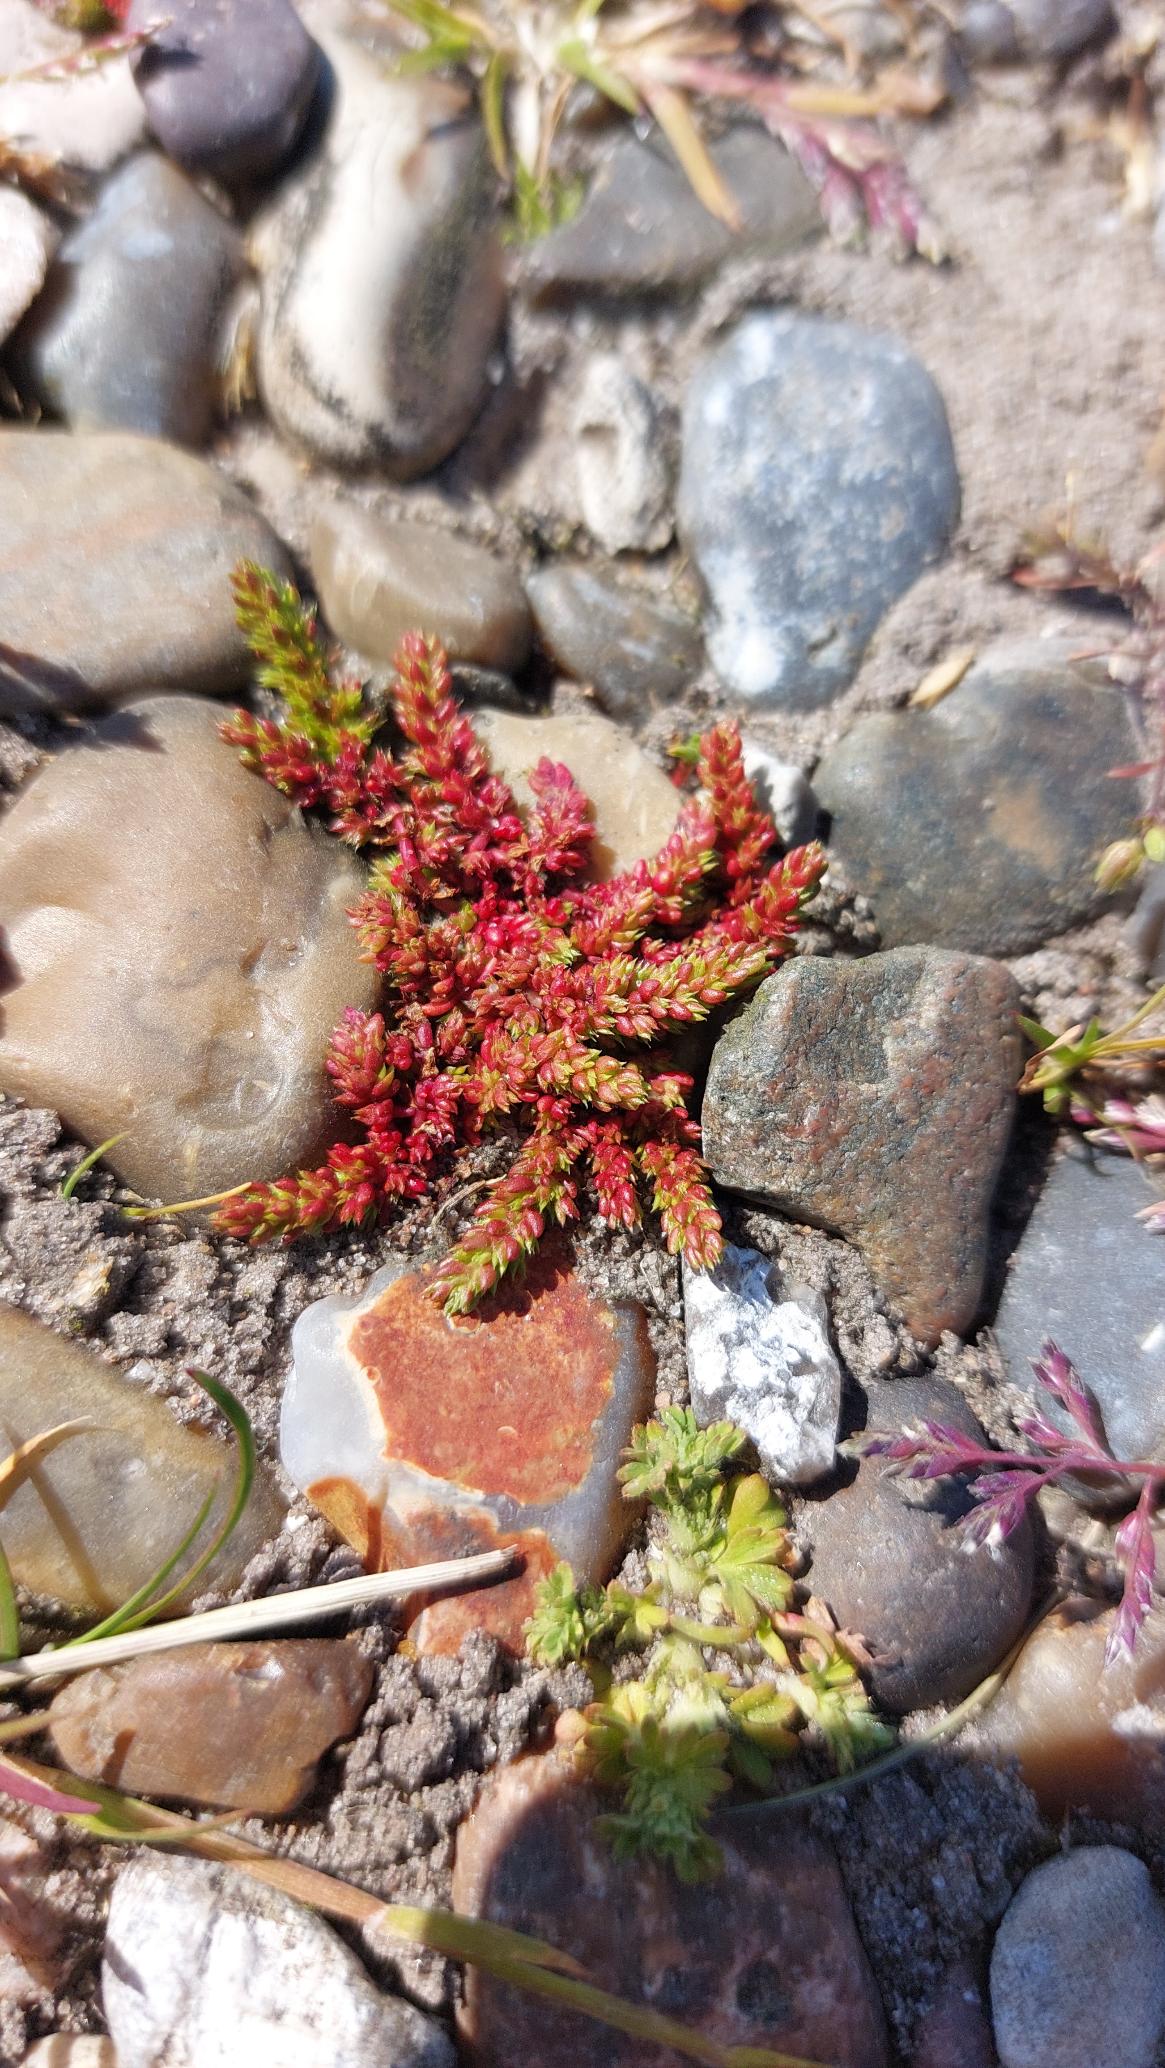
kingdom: Plantae
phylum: Tracheophyta
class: Magnoliopsida
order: Saxifragales
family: Crassulaceae
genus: Crassula
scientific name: Crassula tillaea
